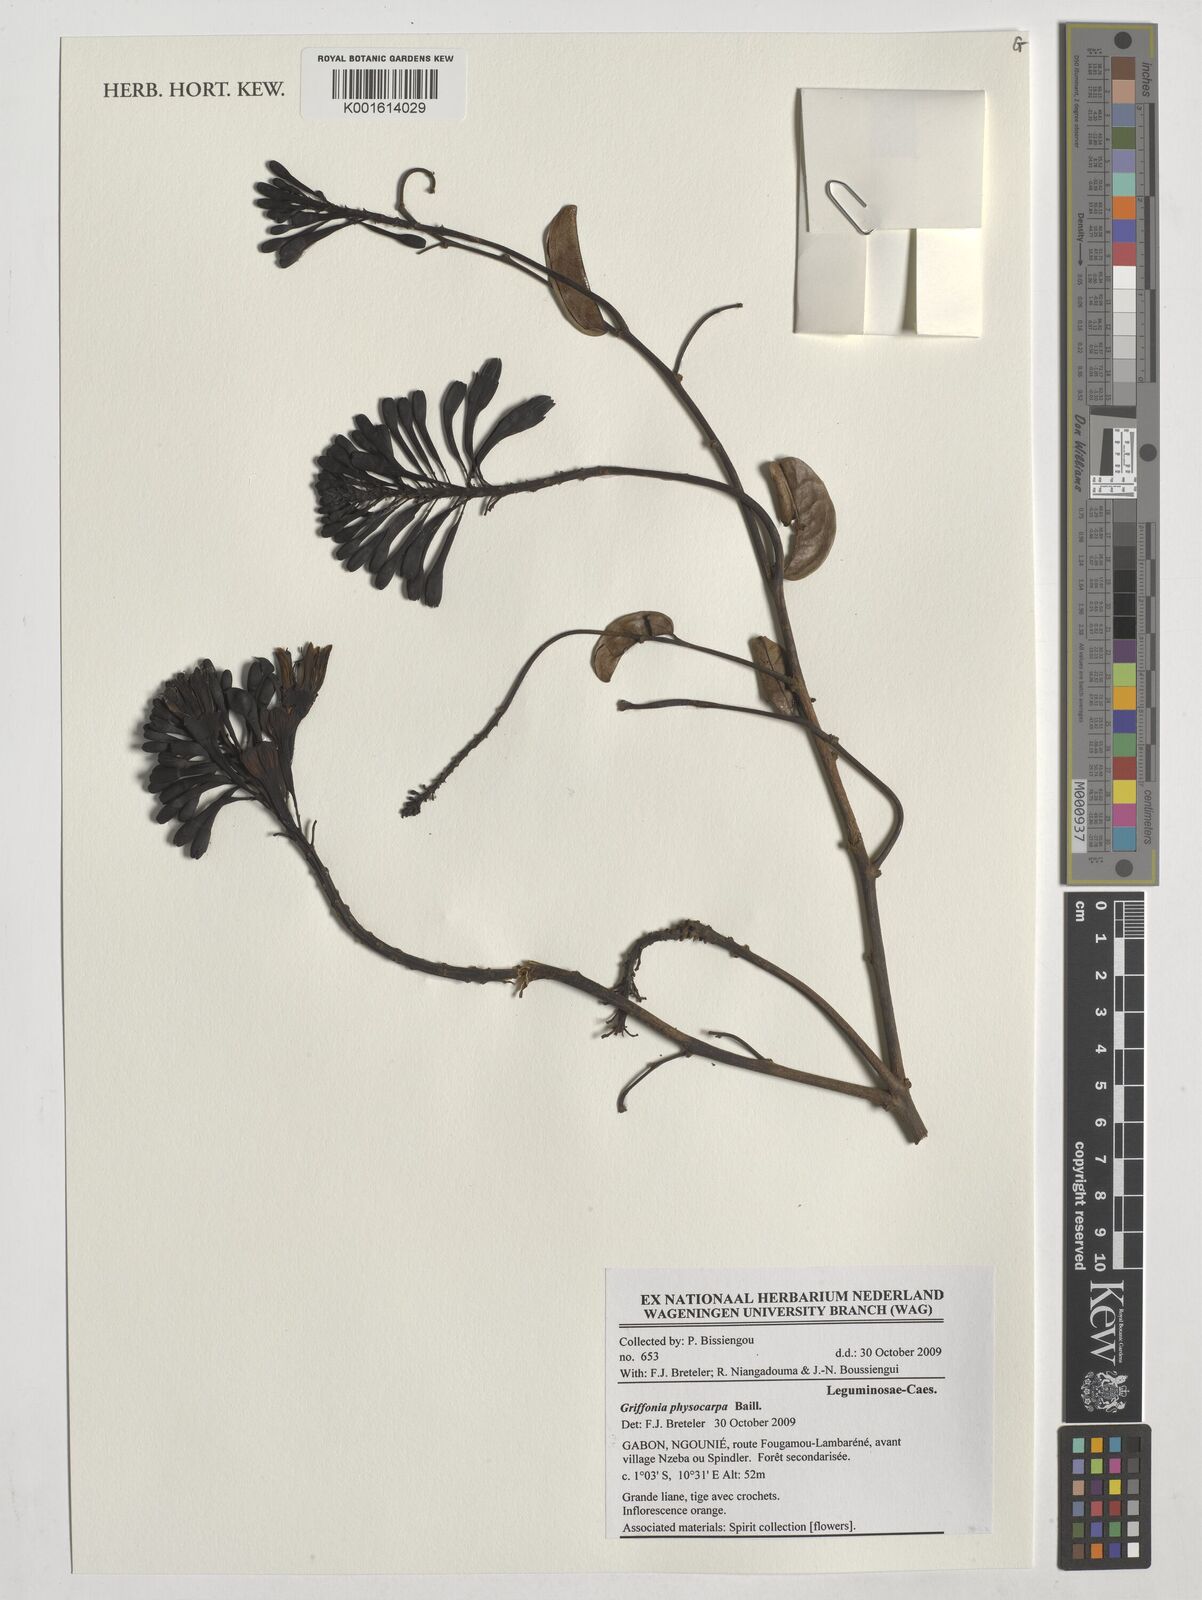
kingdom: Plantae
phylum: Tracheophyta
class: Magnoliopsida
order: Fabales
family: Fabaceae
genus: Griffonia
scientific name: Griffonia physocarpa
